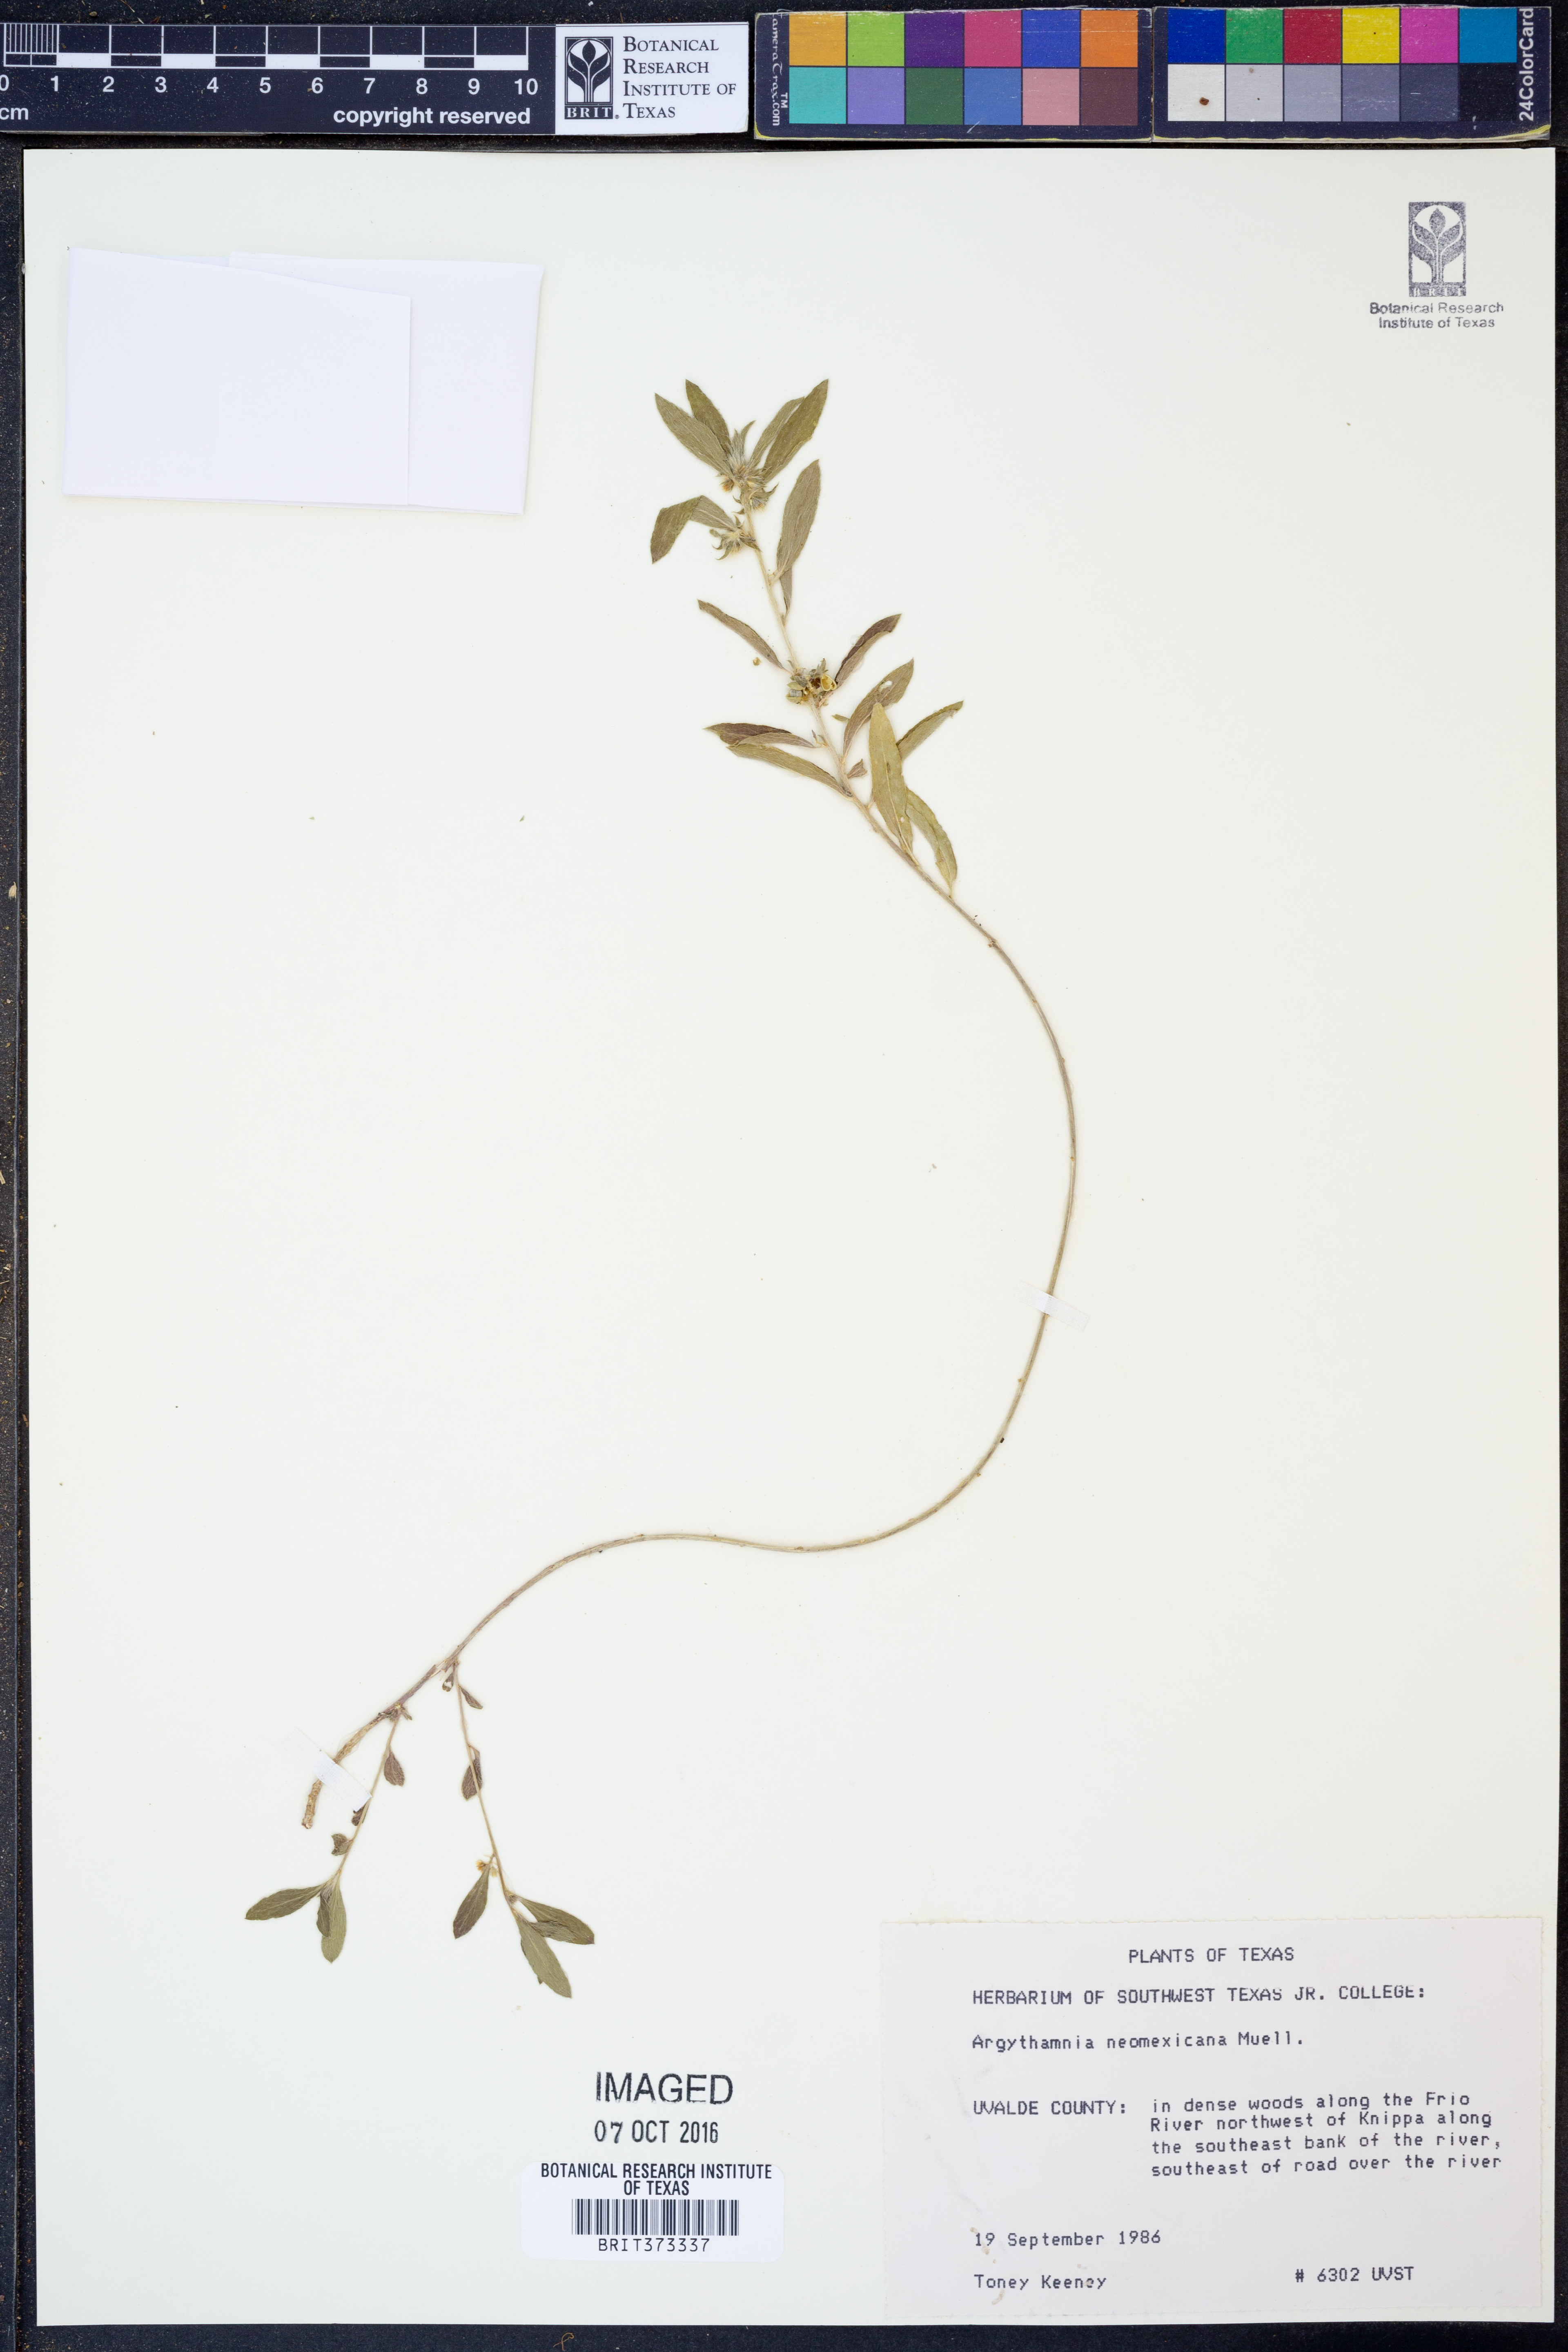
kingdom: Plantae
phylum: Tracheophyta
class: Magnoliopsida
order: Malpighiales
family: Euphorbiaceae
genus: Ditaxis
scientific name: Ditaxis serrata
